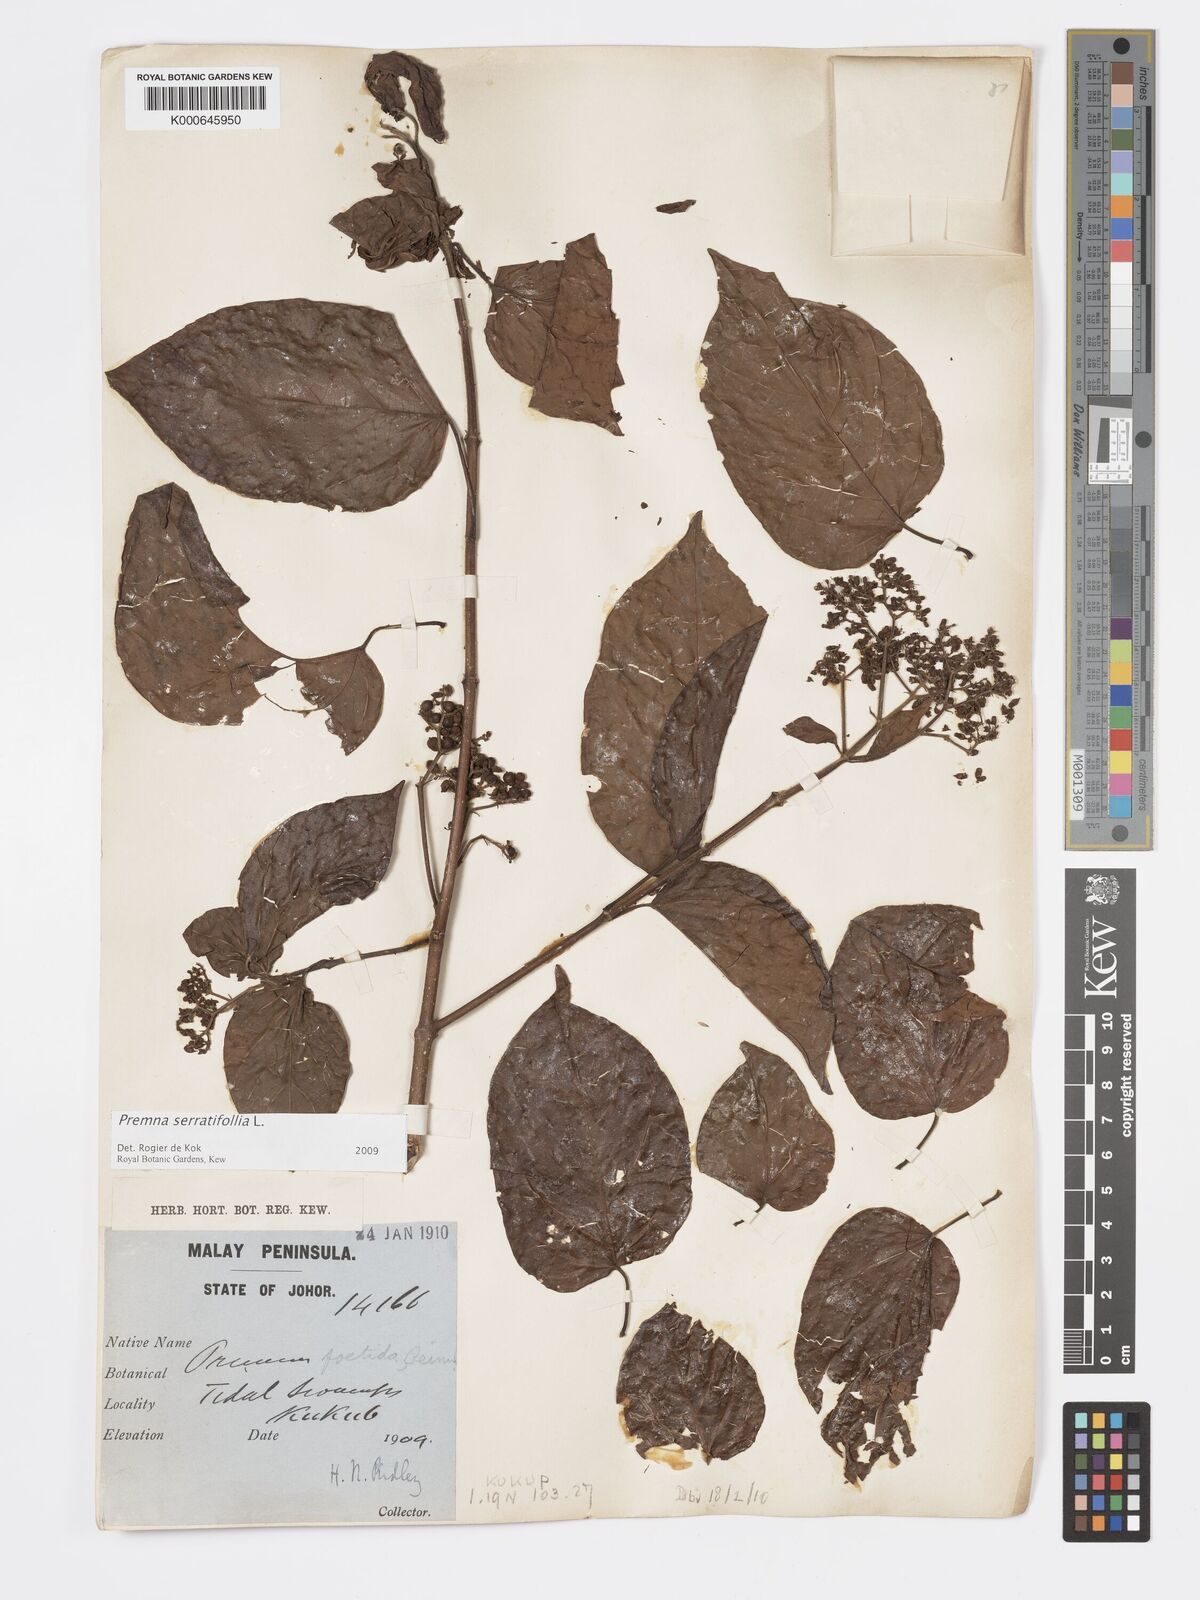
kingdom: Plantae
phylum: Tracheophyta
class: Magnoliopsida
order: Lamiales
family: Lamiaceae
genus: Premna
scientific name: Premna serratifolia
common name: Bastard guelder
